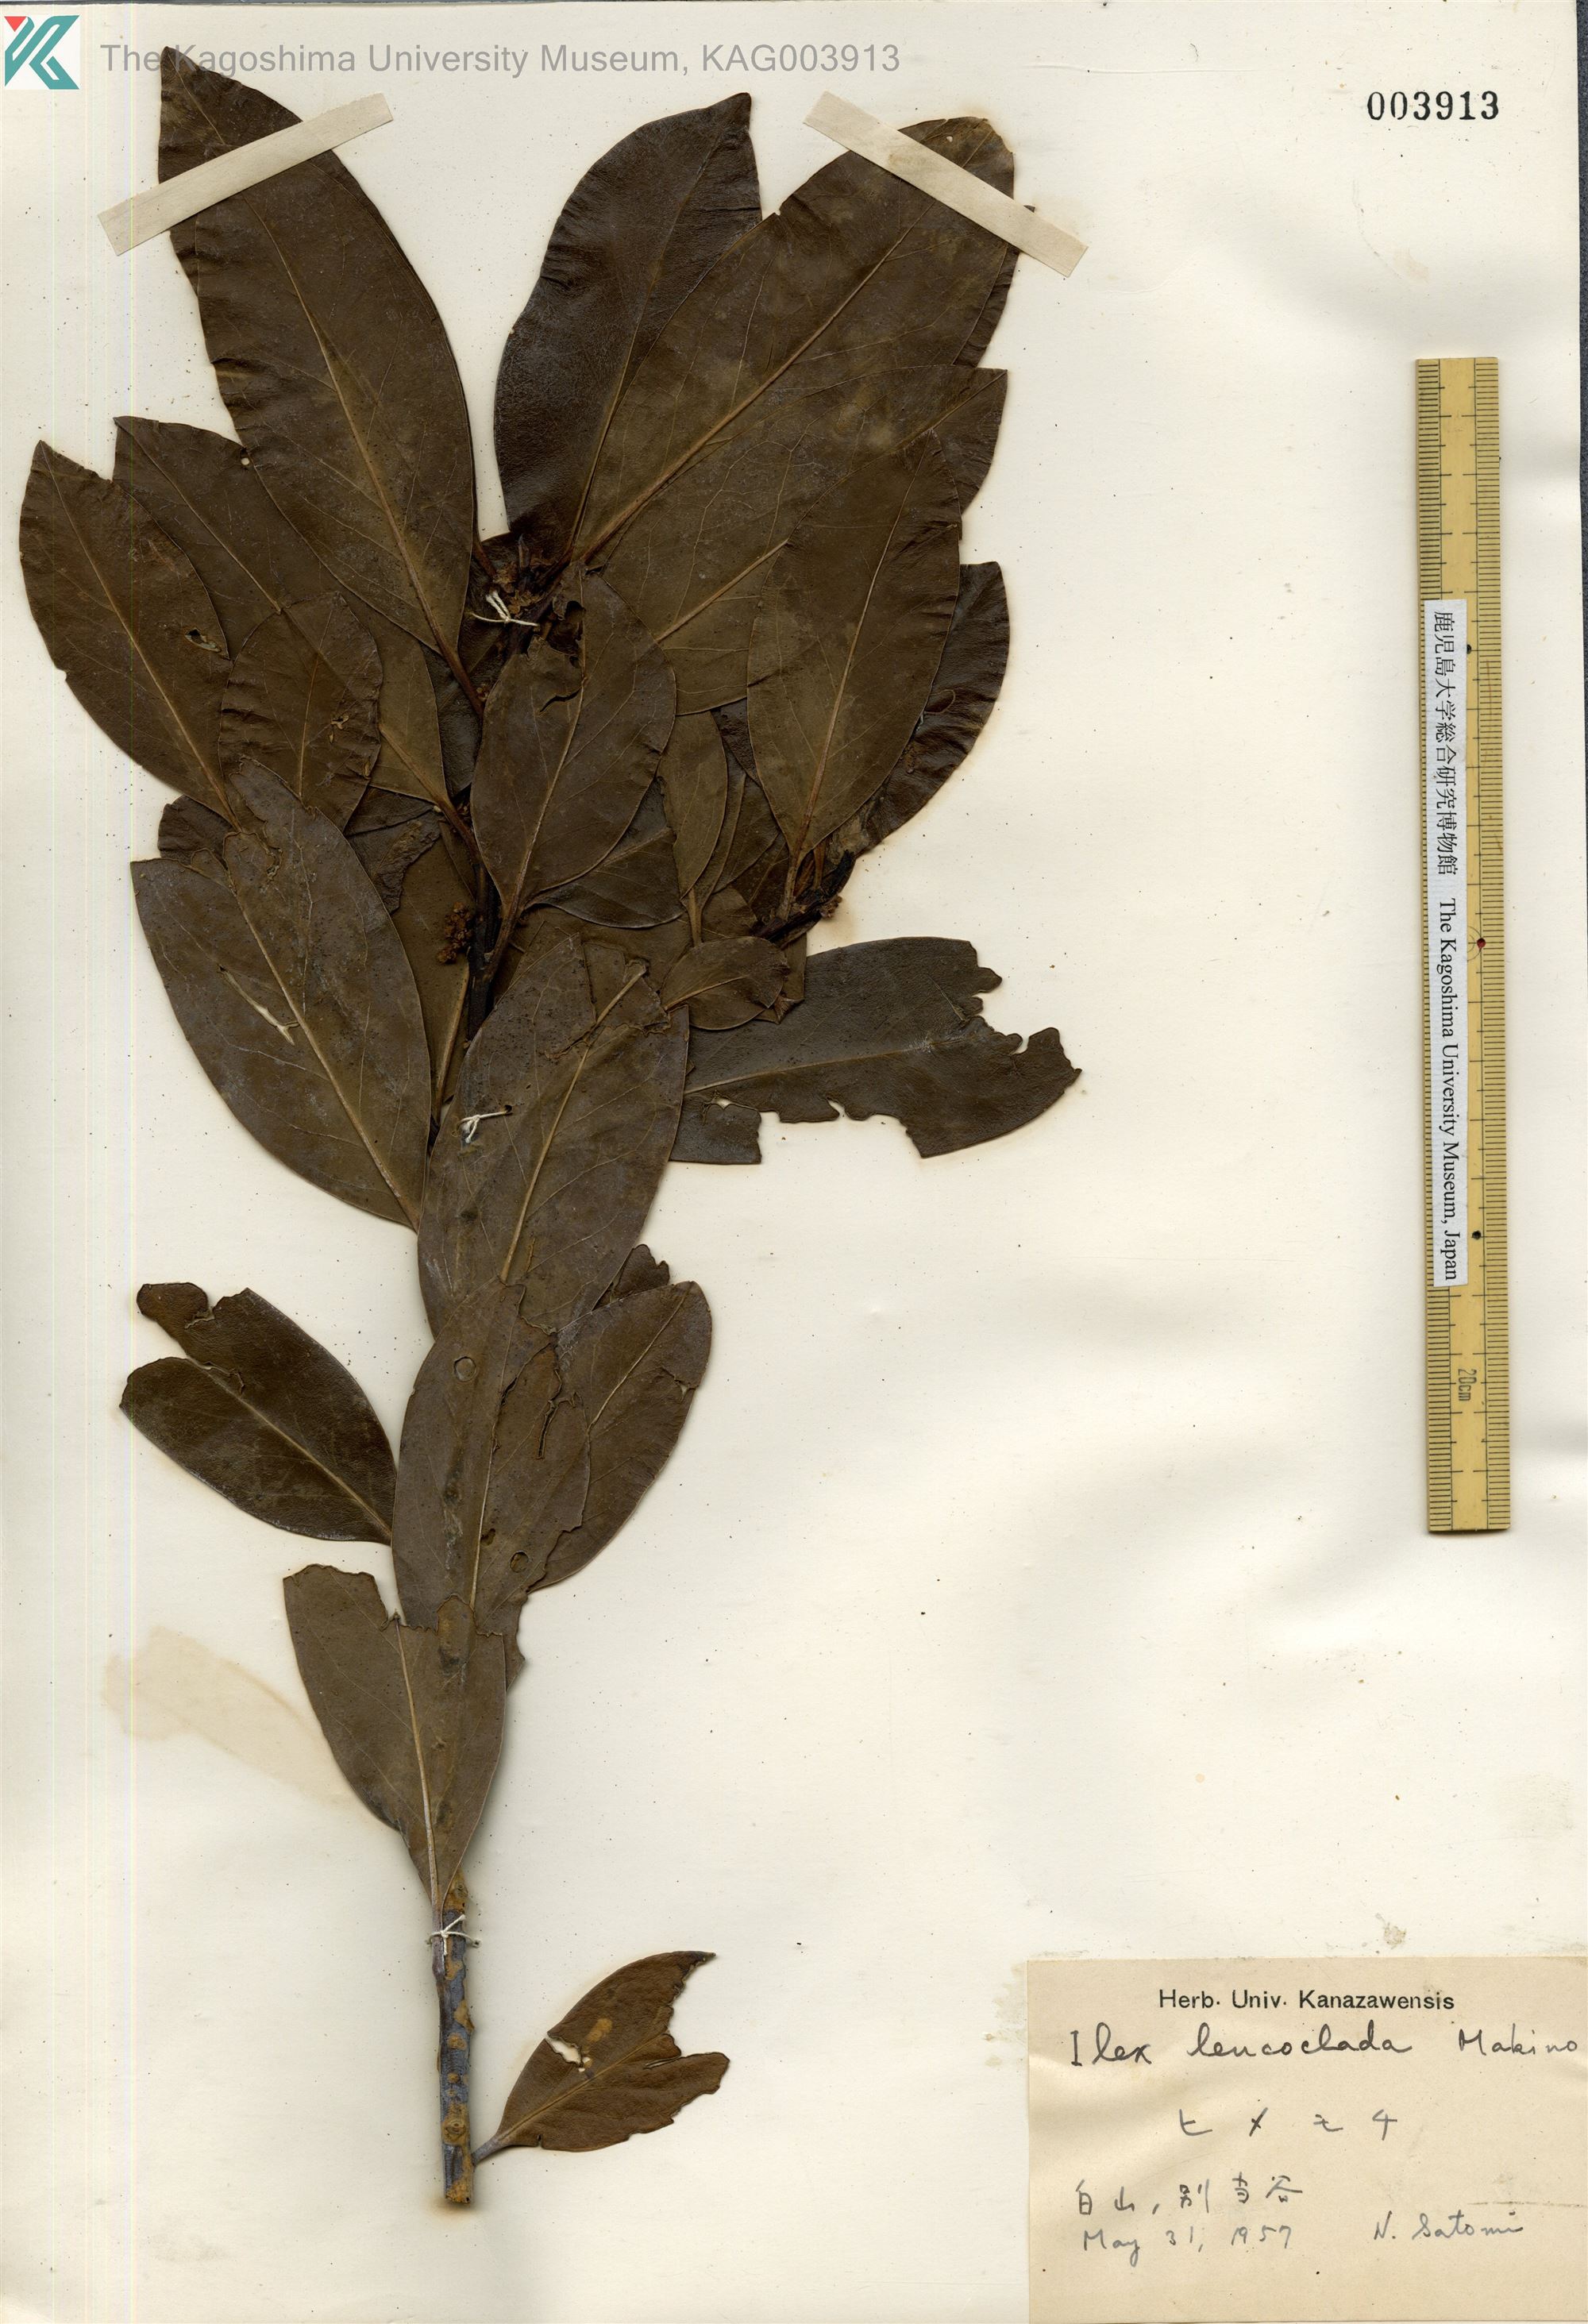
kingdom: Plantae
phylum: Tracheophyta
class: Magnoliopsida
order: Aquifoliales
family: Aquifoliaceae
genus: Ilex
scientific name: Ilex leucoclada
